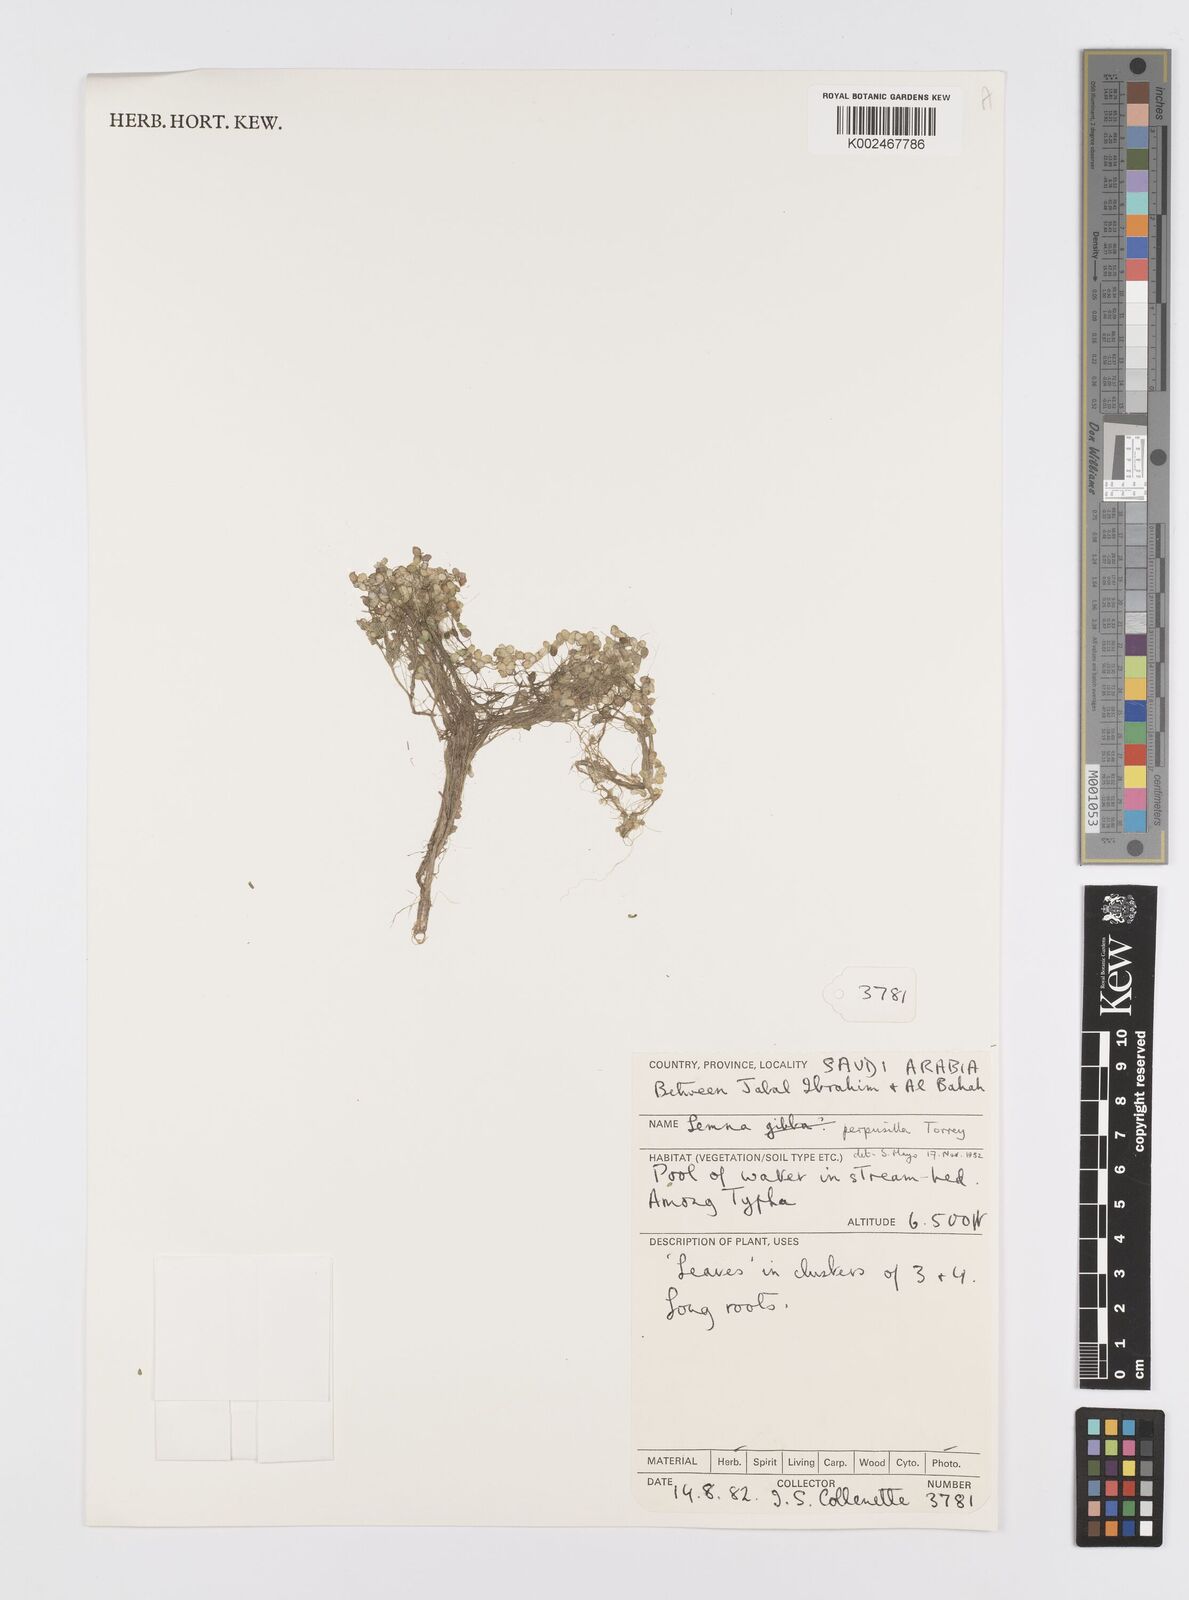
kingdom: Plantae
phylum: Tracheophyta
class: Liliopsida
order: Alismatales
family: Araceae
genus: Lemna
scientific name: Lemna perpusilla
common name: Duckweed
